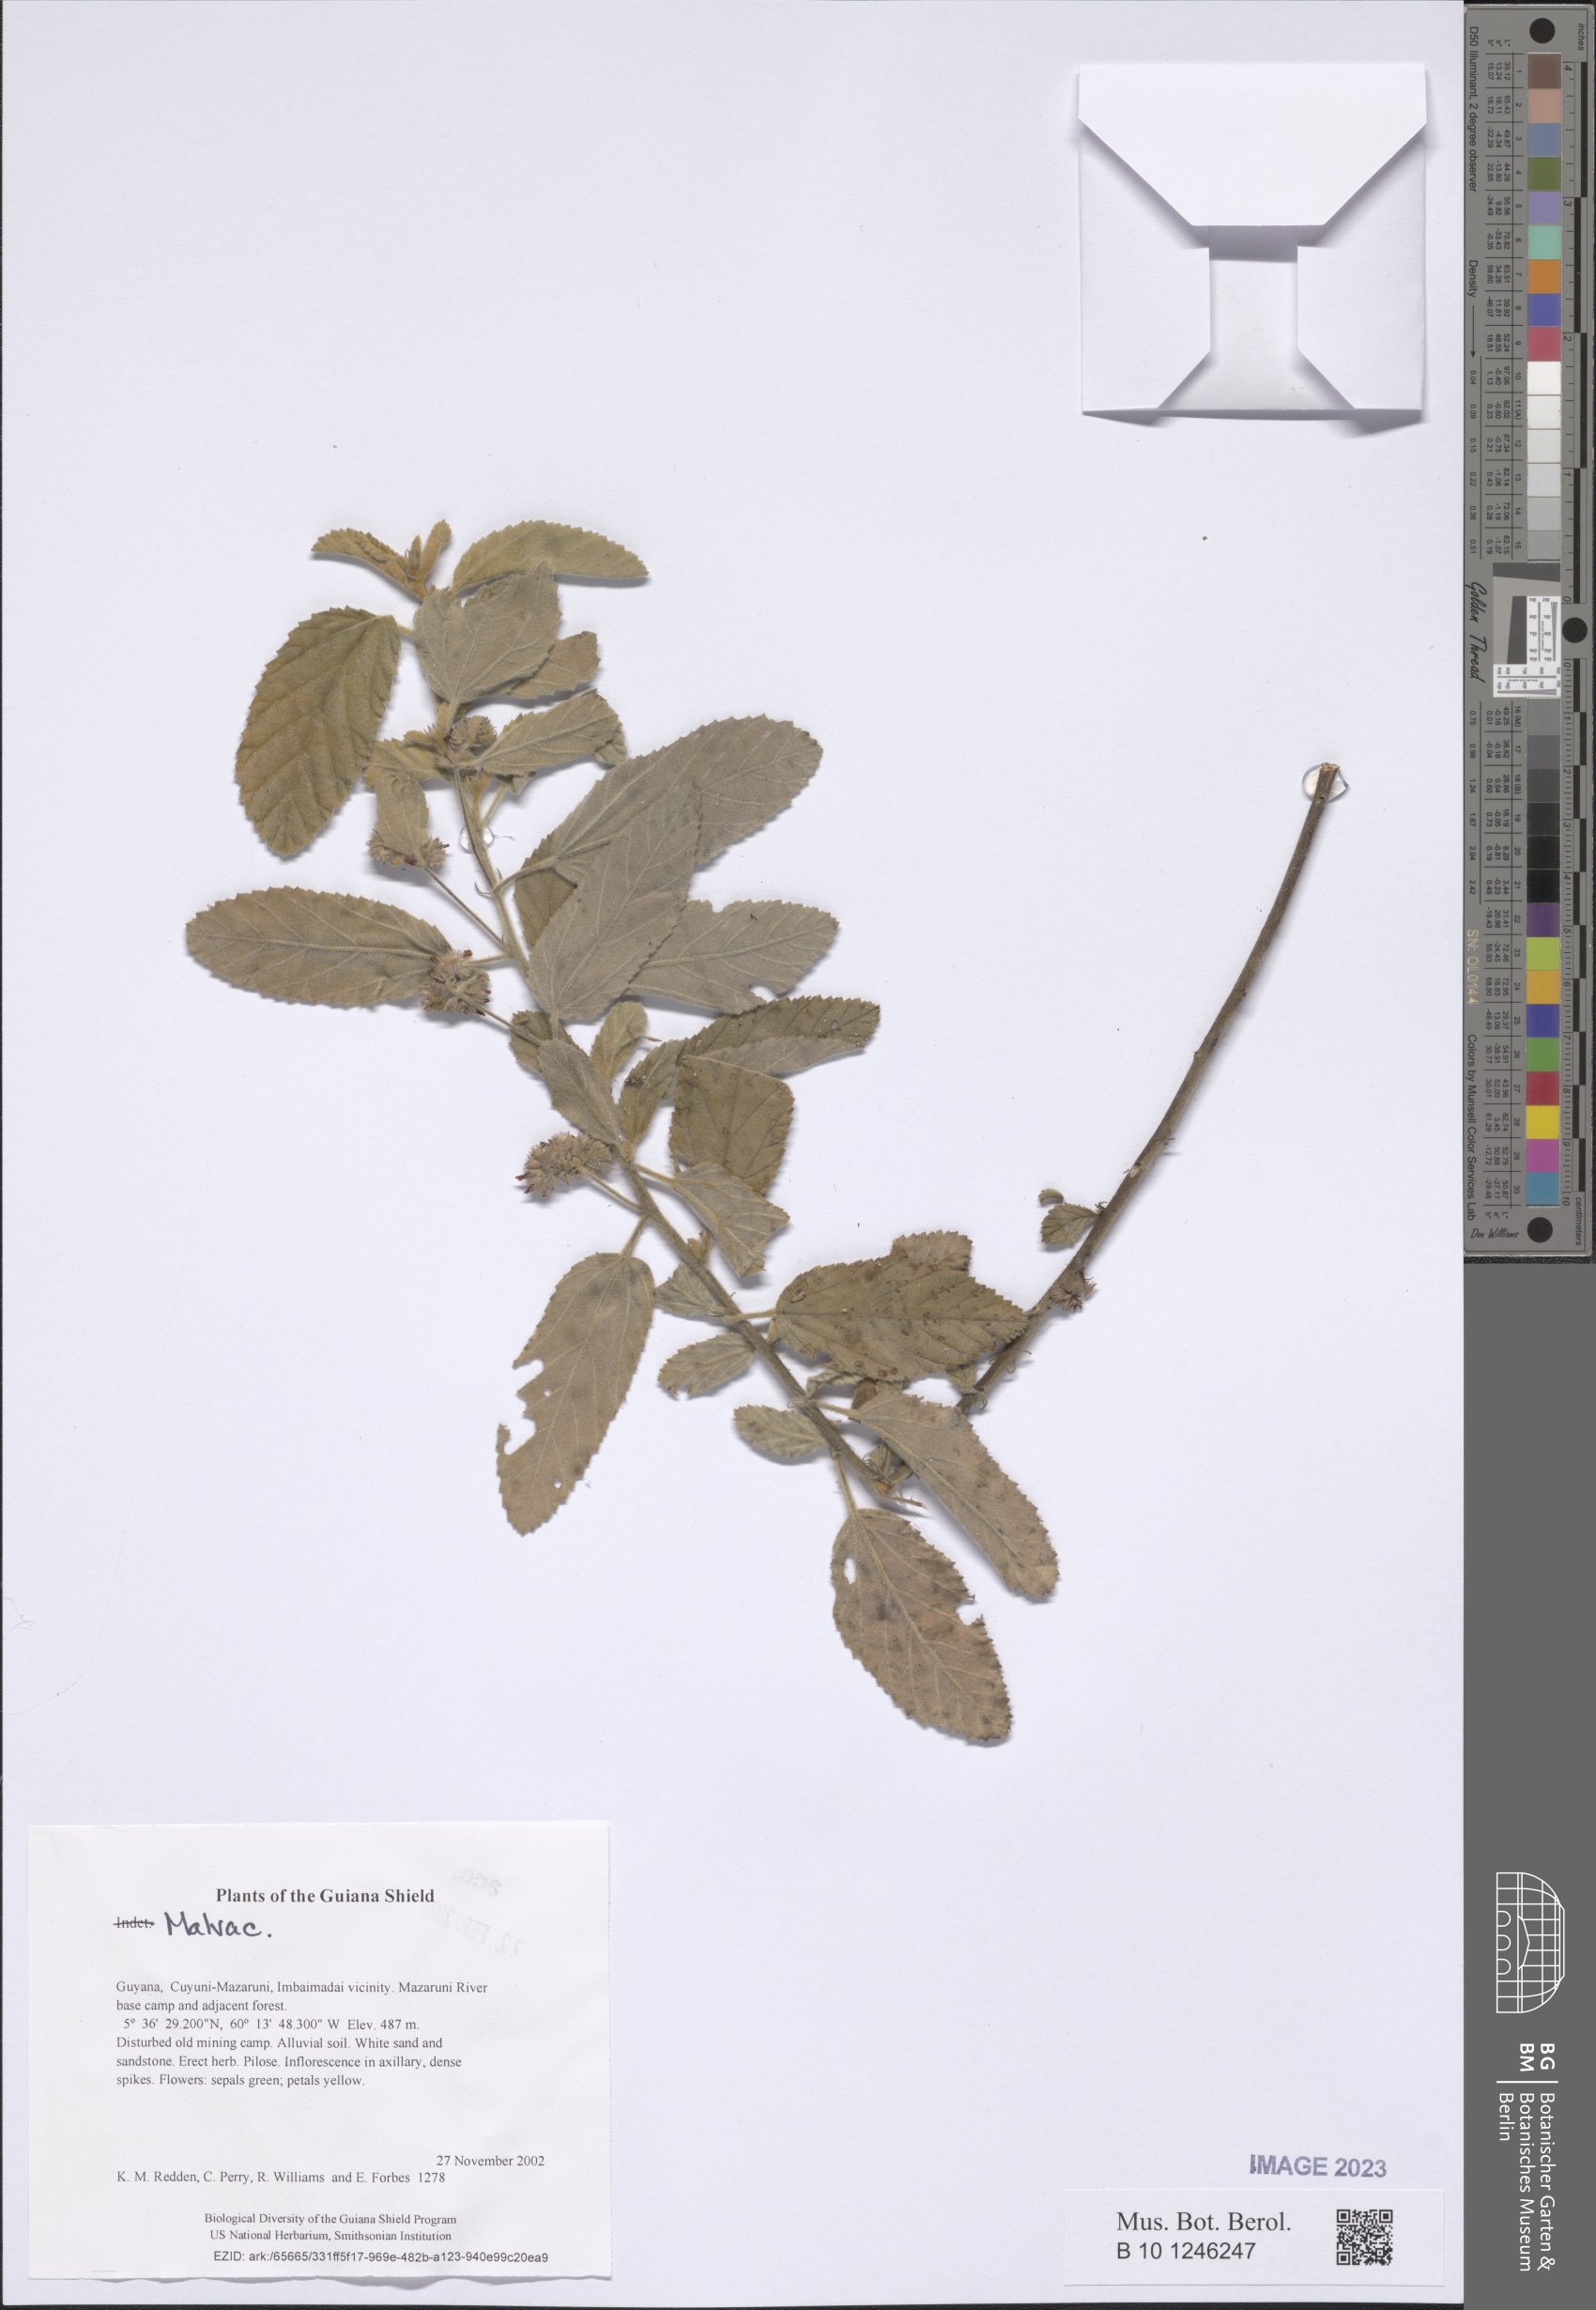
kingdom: Plantae
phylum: Tracheophyta
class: Magnoliopsida
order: Malvales
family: Malvaceae
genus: Waltheria
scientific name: Waltheria indica
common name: Leather-coat
